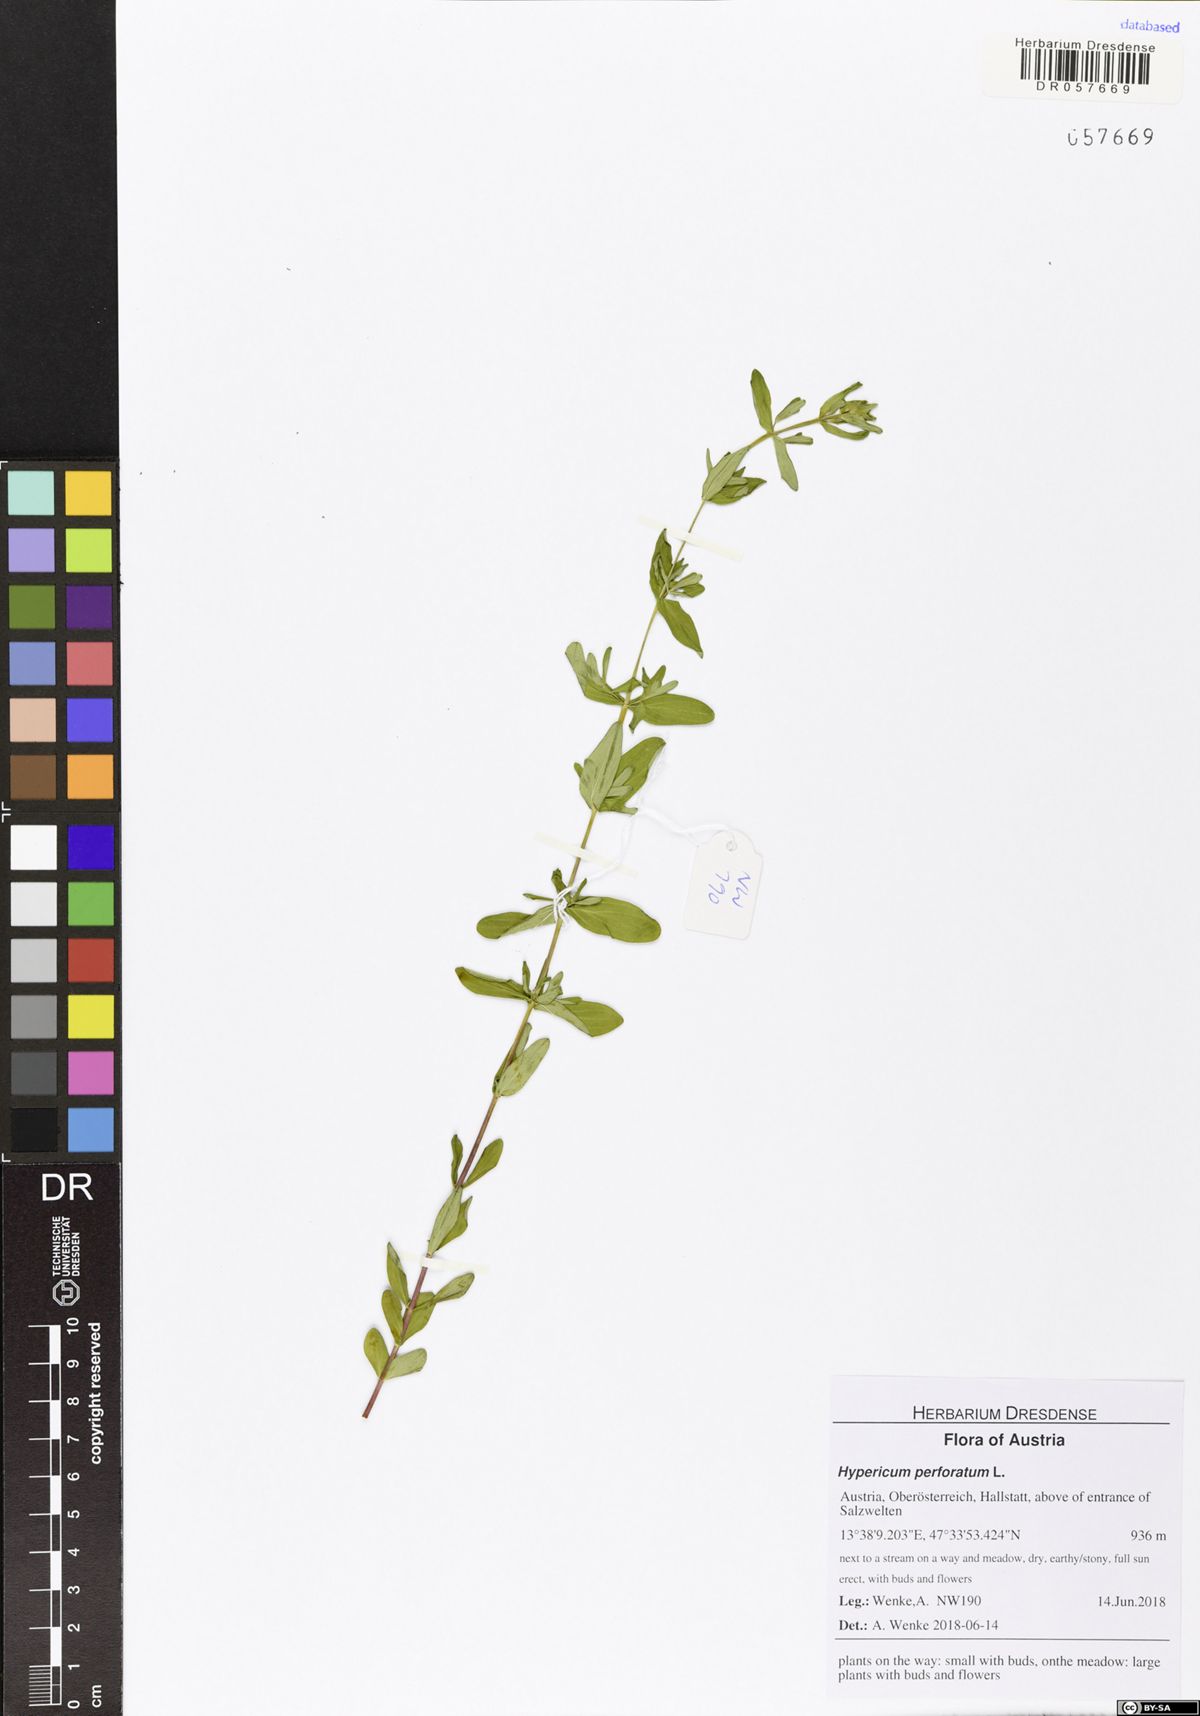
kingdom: Plantae
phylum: Tracheophyta
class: Magnoliopsida
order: Malpighiales
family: Hypericaceae
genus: Hypericum
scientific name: Hypericum perforatum
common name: Common st. johnswort
